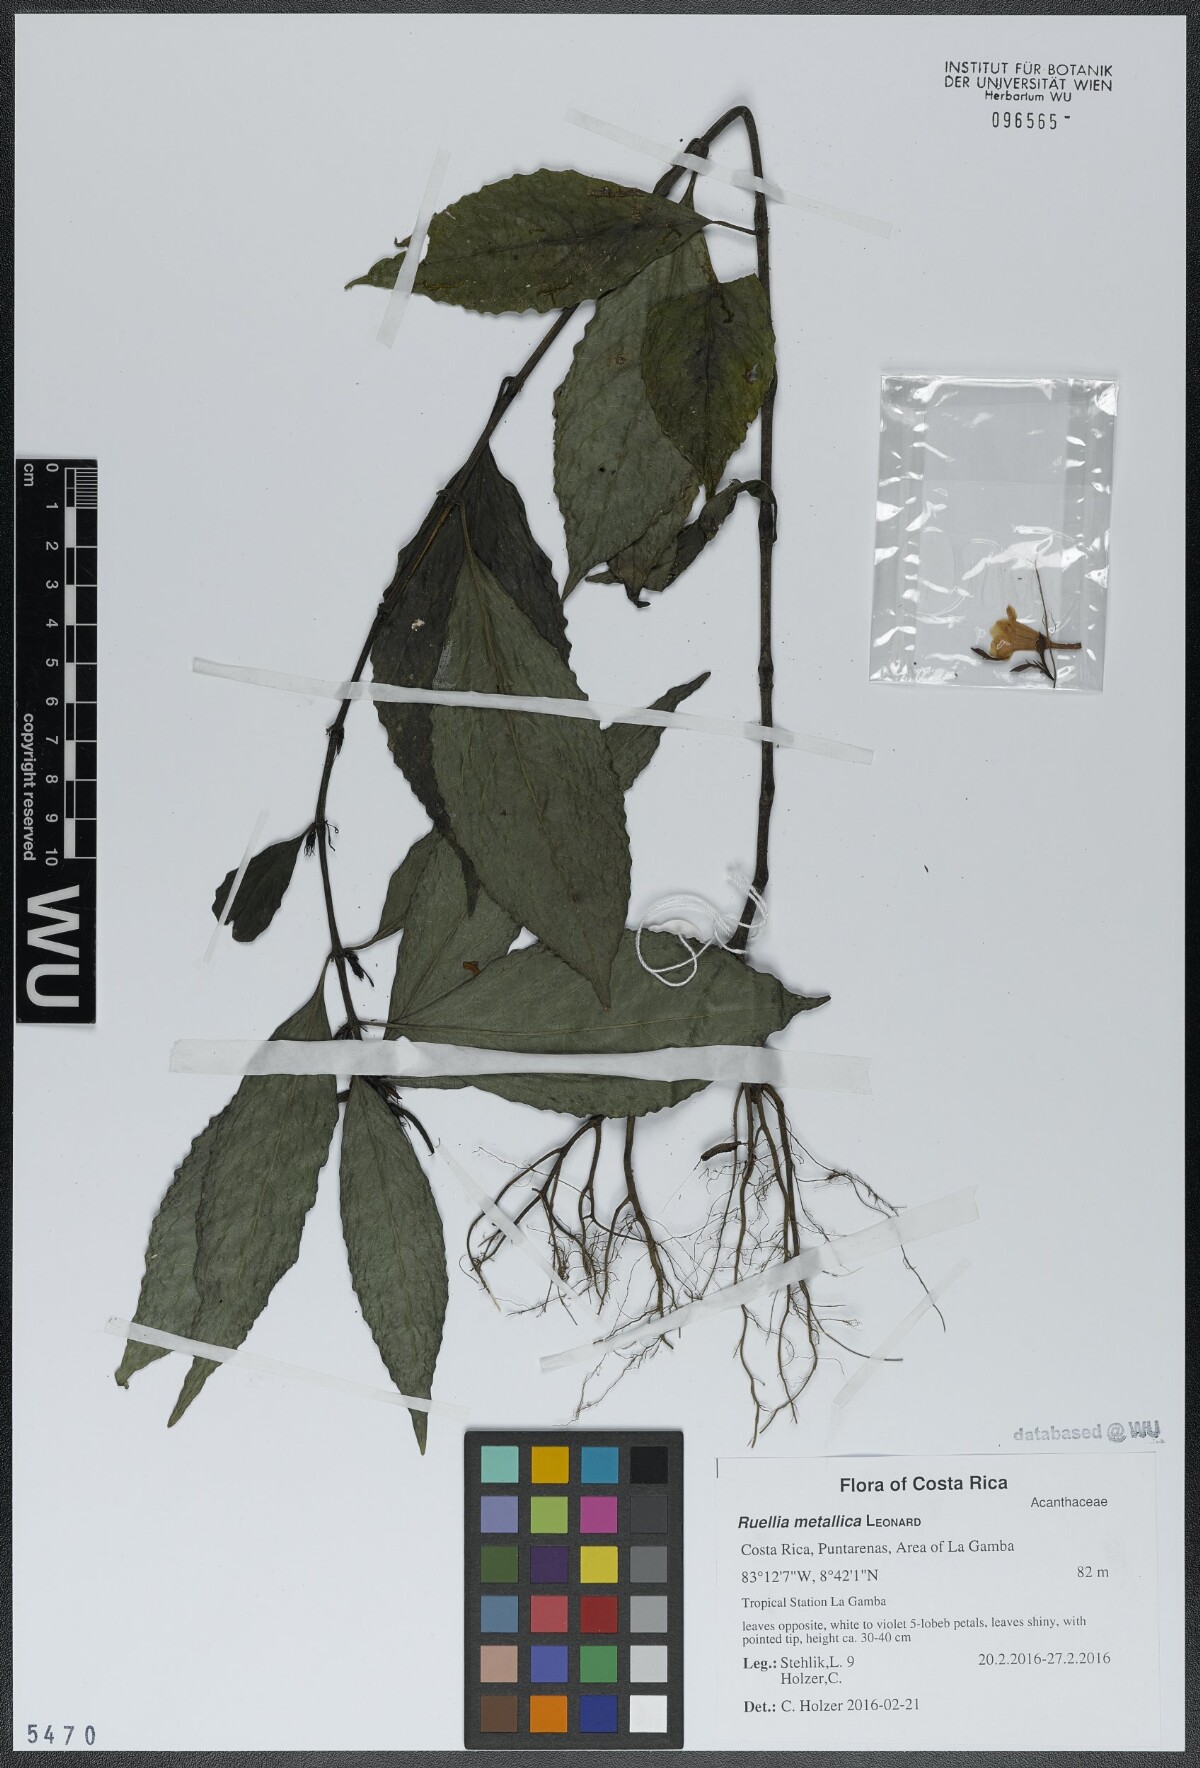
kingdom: Plantae
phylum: Tracheophyta
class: Magnoliopsida
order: Lamiales
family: Acanthaceae
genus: Ruellia
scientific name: Ruellia metallica
